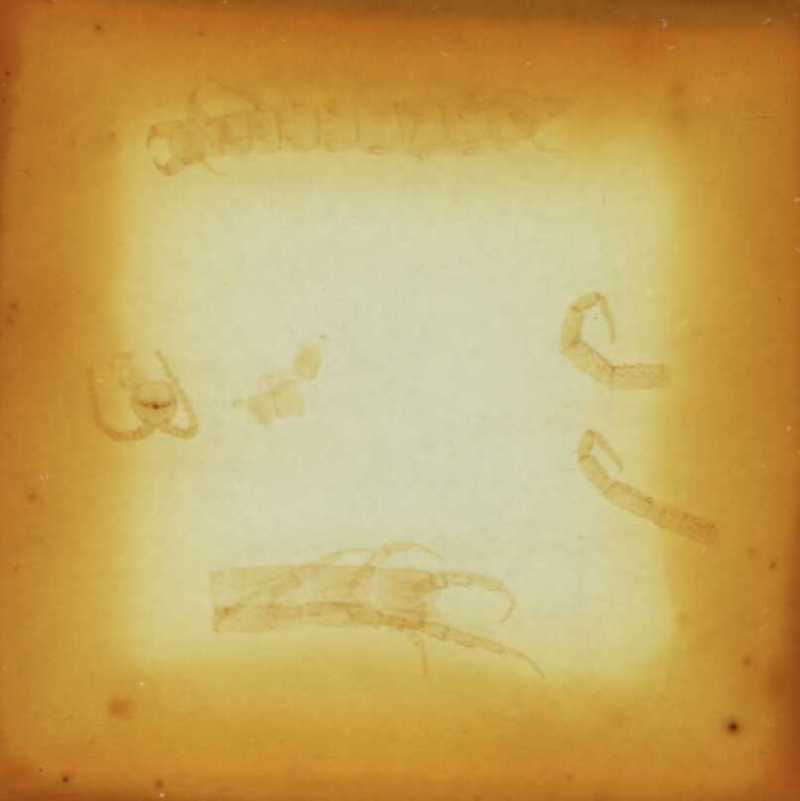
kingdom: Animalia
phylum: Arthropoda
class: Chilopoda
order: Scolopendromorpha
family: Cryptopidae
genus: Cryptops
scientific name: Cryptops sublitoralis
